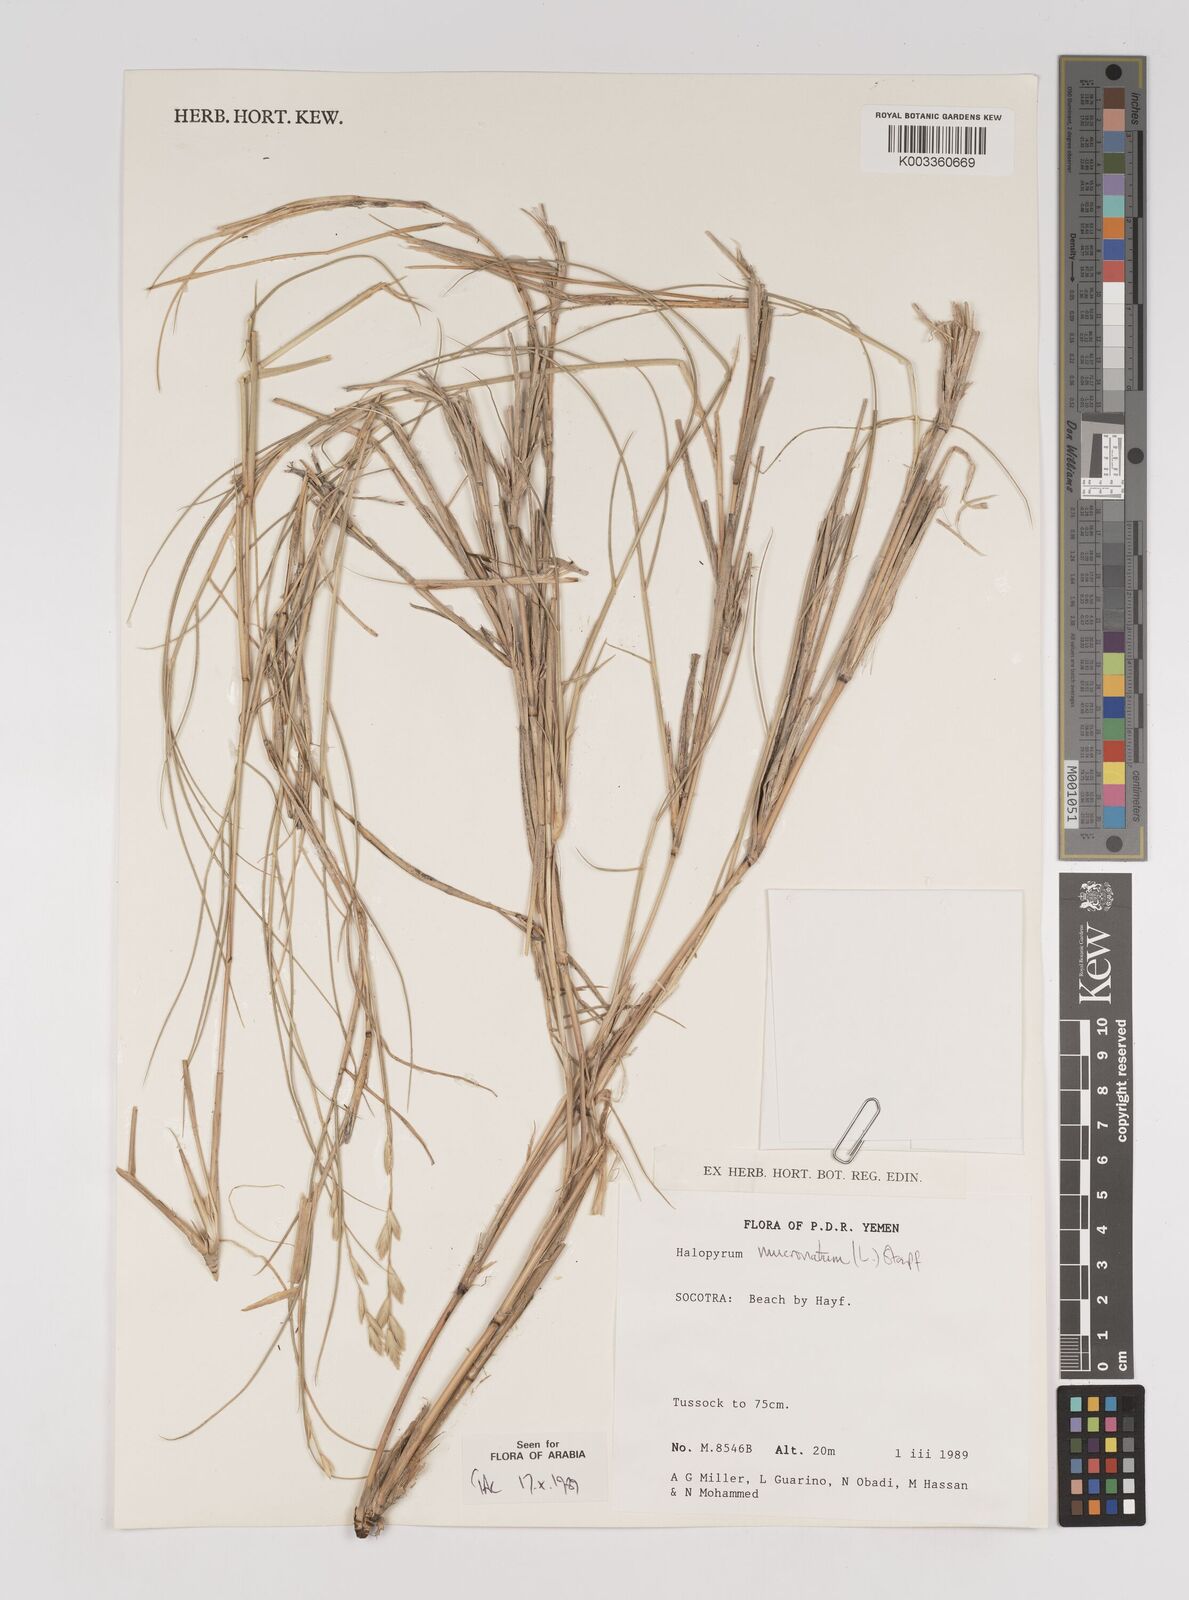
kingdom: Plantae
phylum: Tracheophyta
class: Liliopsida
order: Poales
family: Poaceae
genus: Halopyrum
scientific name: Halopyrum mucronatum
